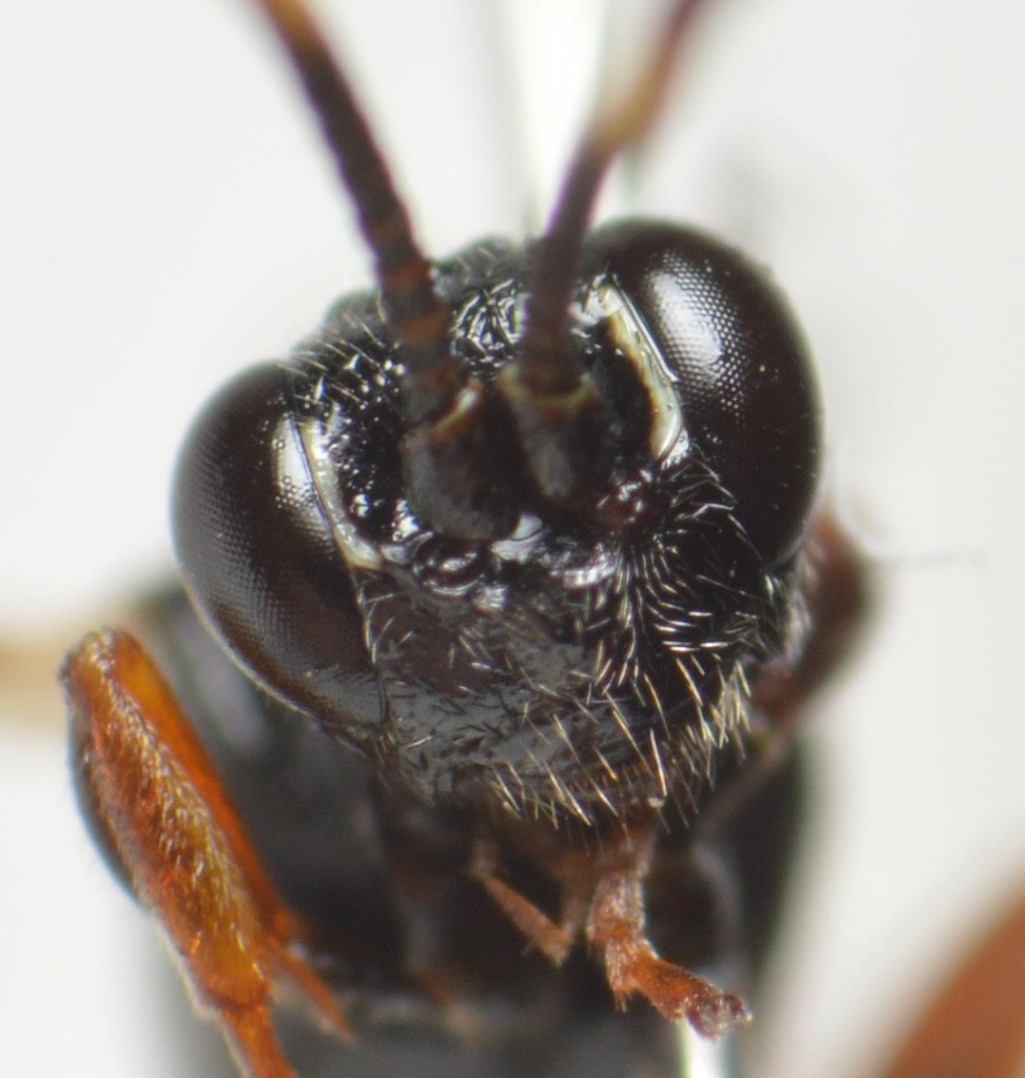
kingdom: Animalia
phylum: Arthropoda
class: Insecta
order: Hymenoptera
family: Ichneumonidae
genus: Barichneumon
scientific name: Barichneumon peregrinator
